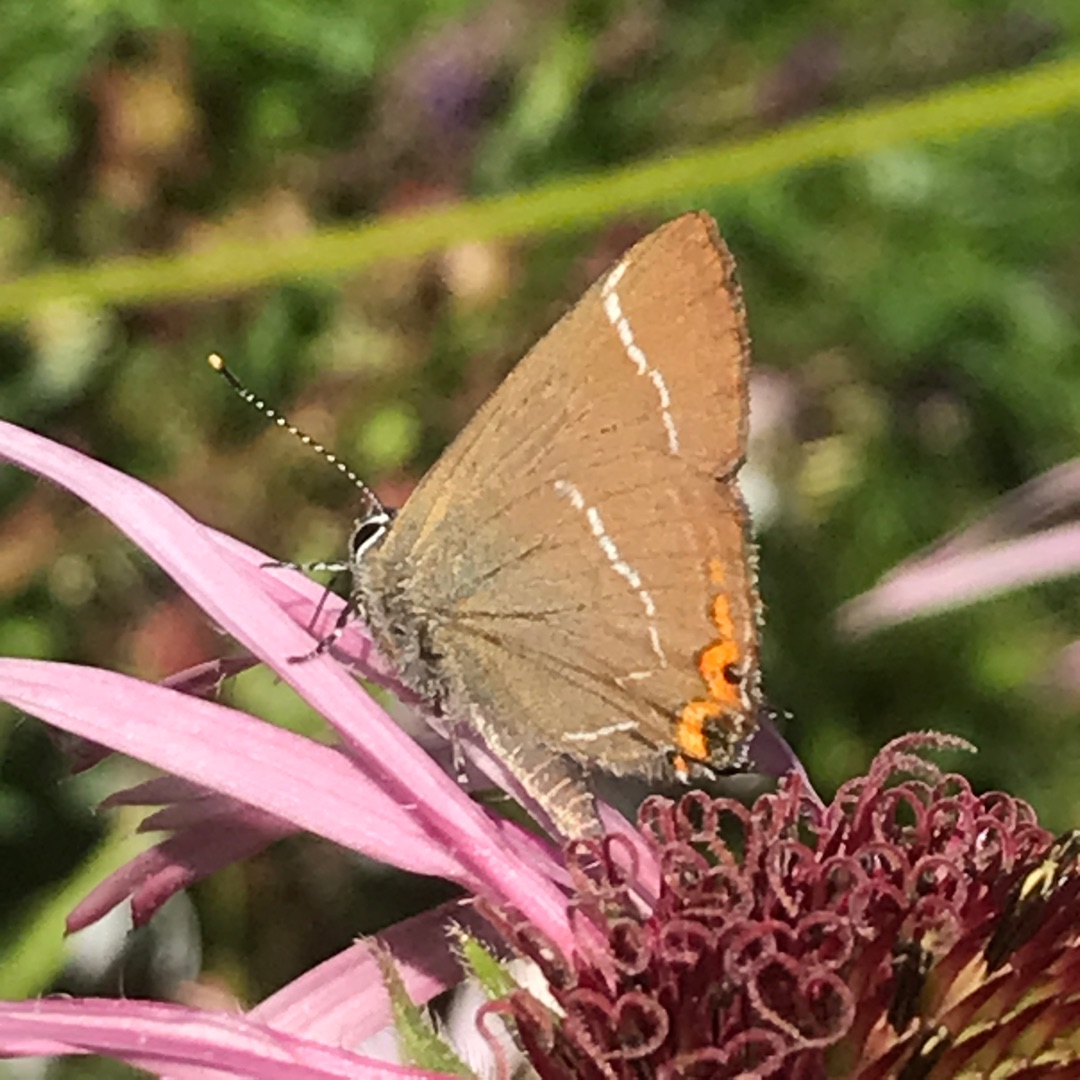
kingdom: Animalia
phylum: Arthropoda
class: Insecta
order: Lepidoptera
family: Lycaenidae
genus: Satyrium
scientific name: Satyrium w-album
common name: Det hvide W
